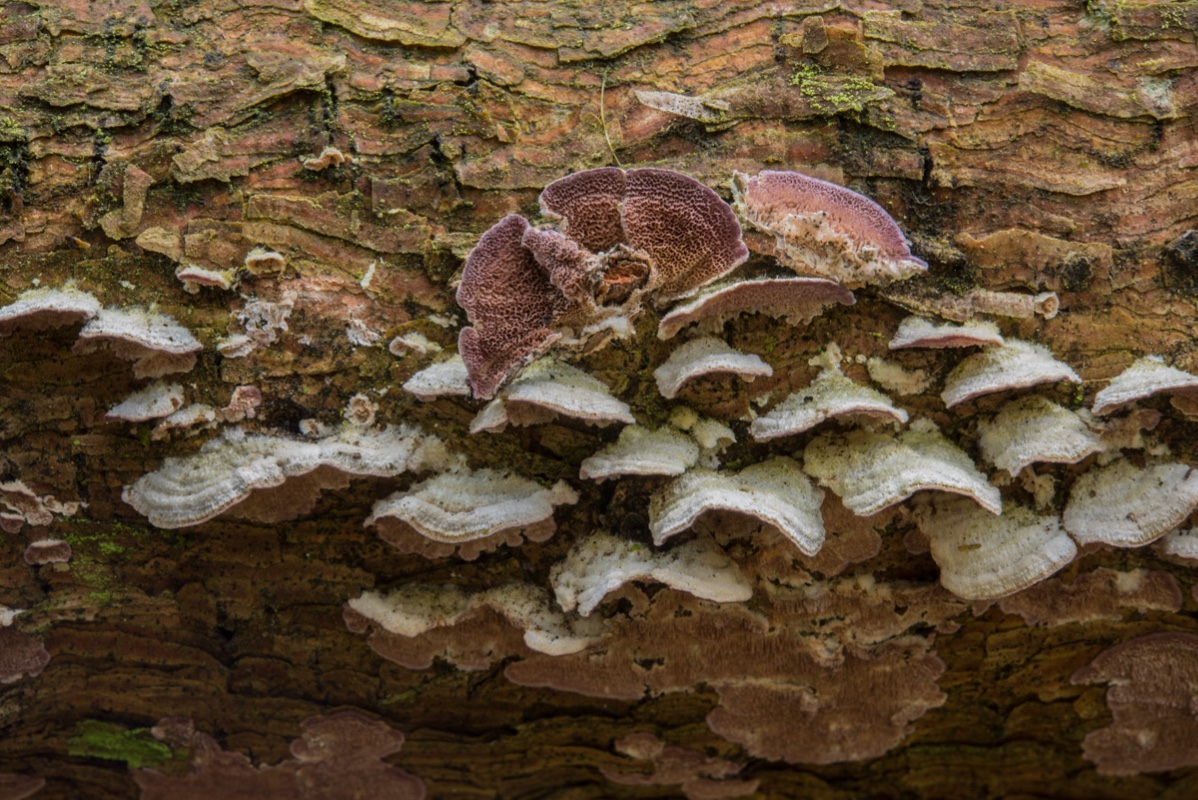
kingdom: Fungi
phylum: Basidiomycota
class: Agaricomycetes
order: Hymenochaetales
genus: Trichaptum
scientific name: Trichaptum abietinum
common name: almindelig violporesvamp
